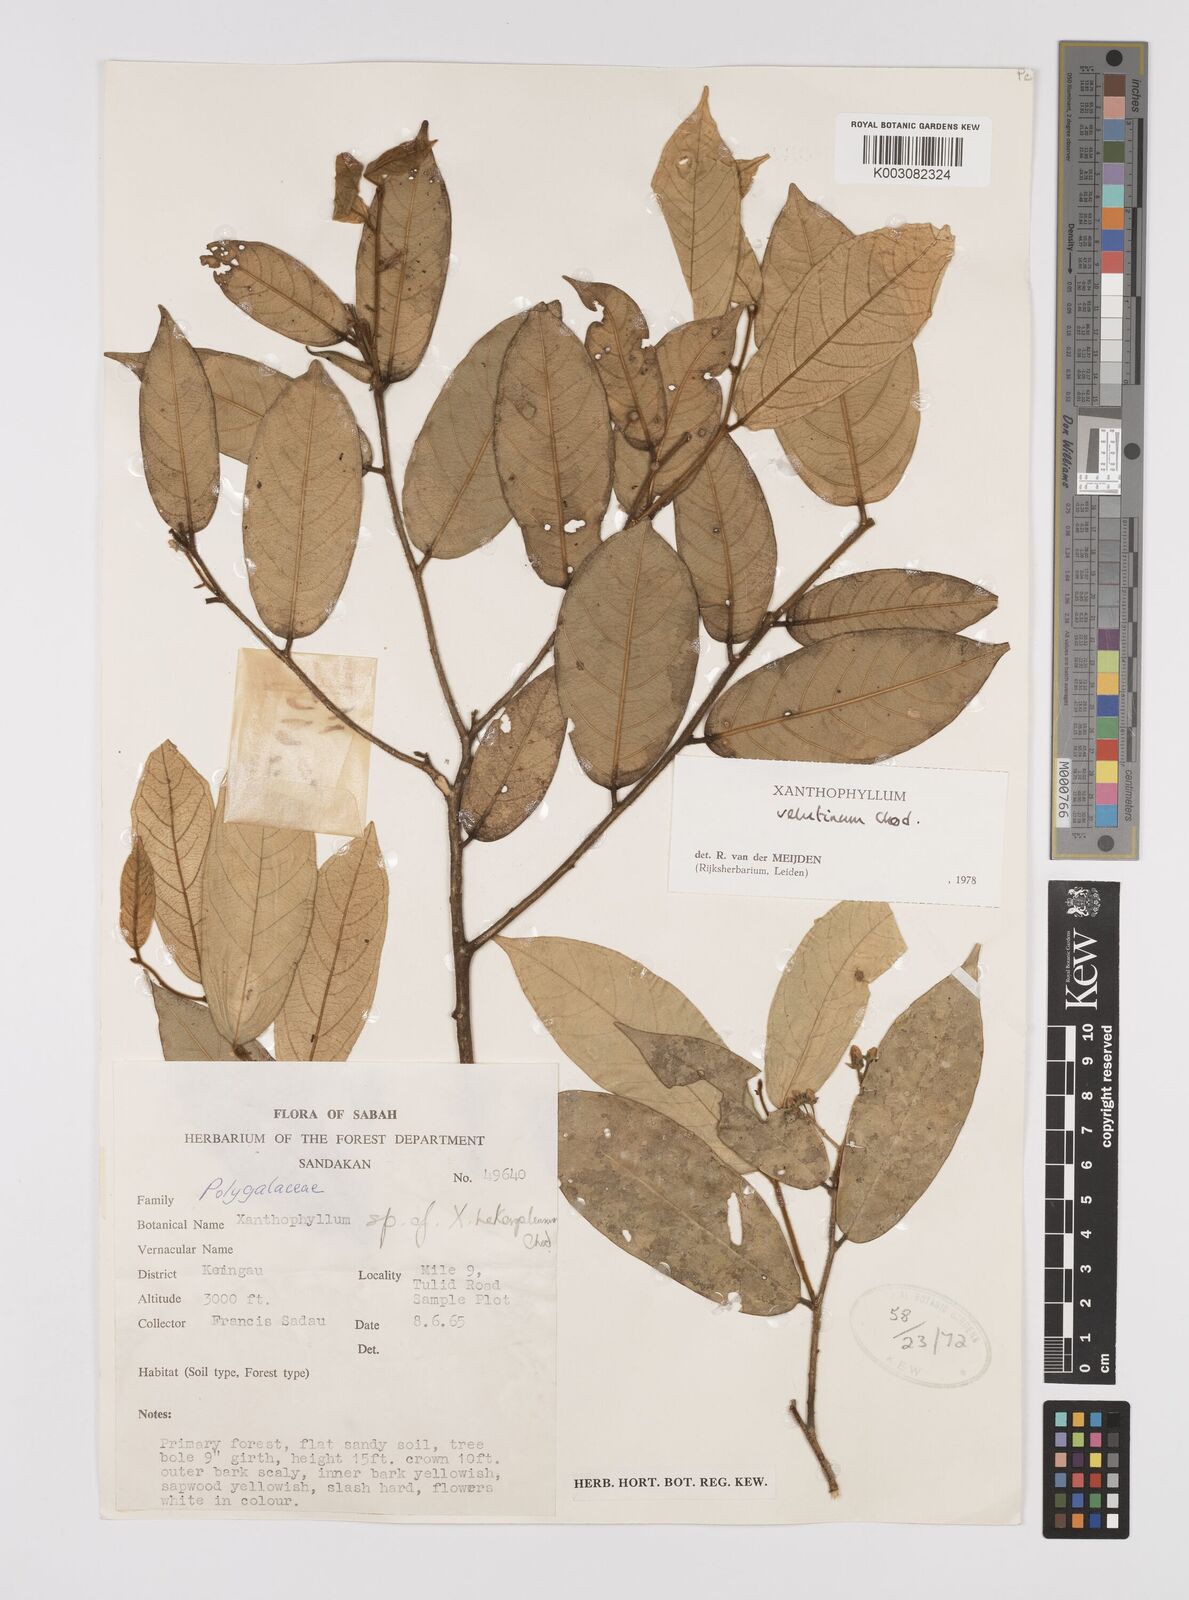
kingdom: Plantae
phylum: Tracheophyta
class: Magnoliopsida
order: Fabales
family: Polygalaceae
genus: Xanthophyllum
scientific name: Xanthophyllum velutinum
